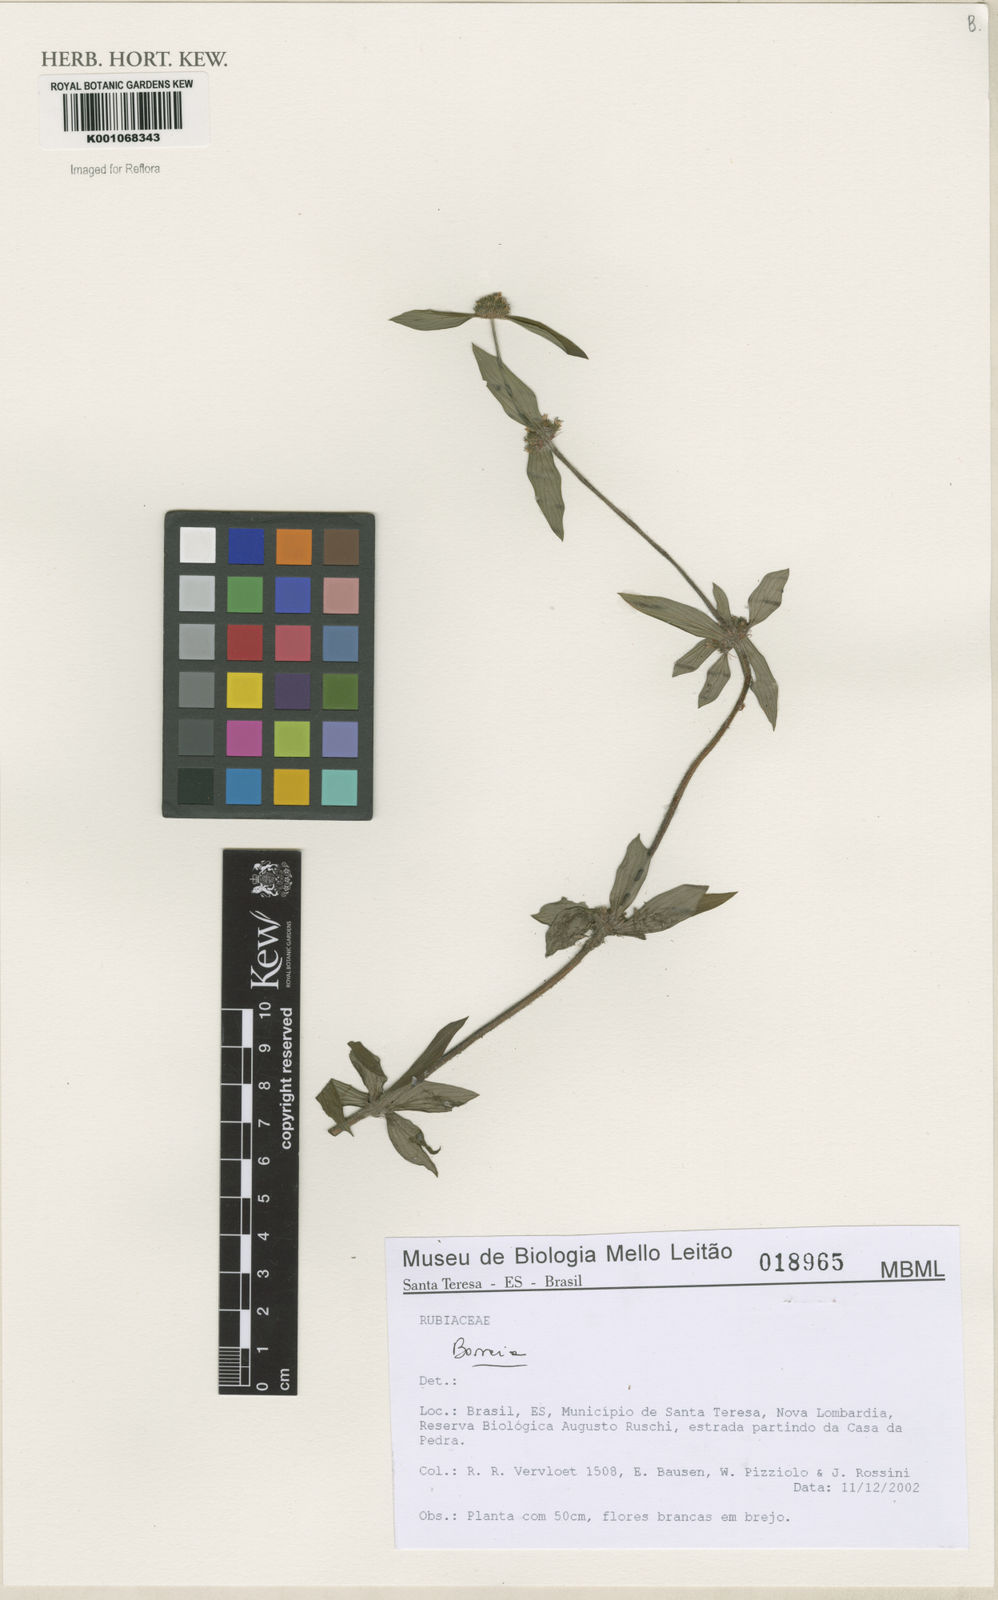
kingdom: Plantae
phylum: Tracheophyta
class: Magnoliopsida
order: Gentianales
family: Rubiaceae
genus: Spermacoce
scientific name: Spermacoce
